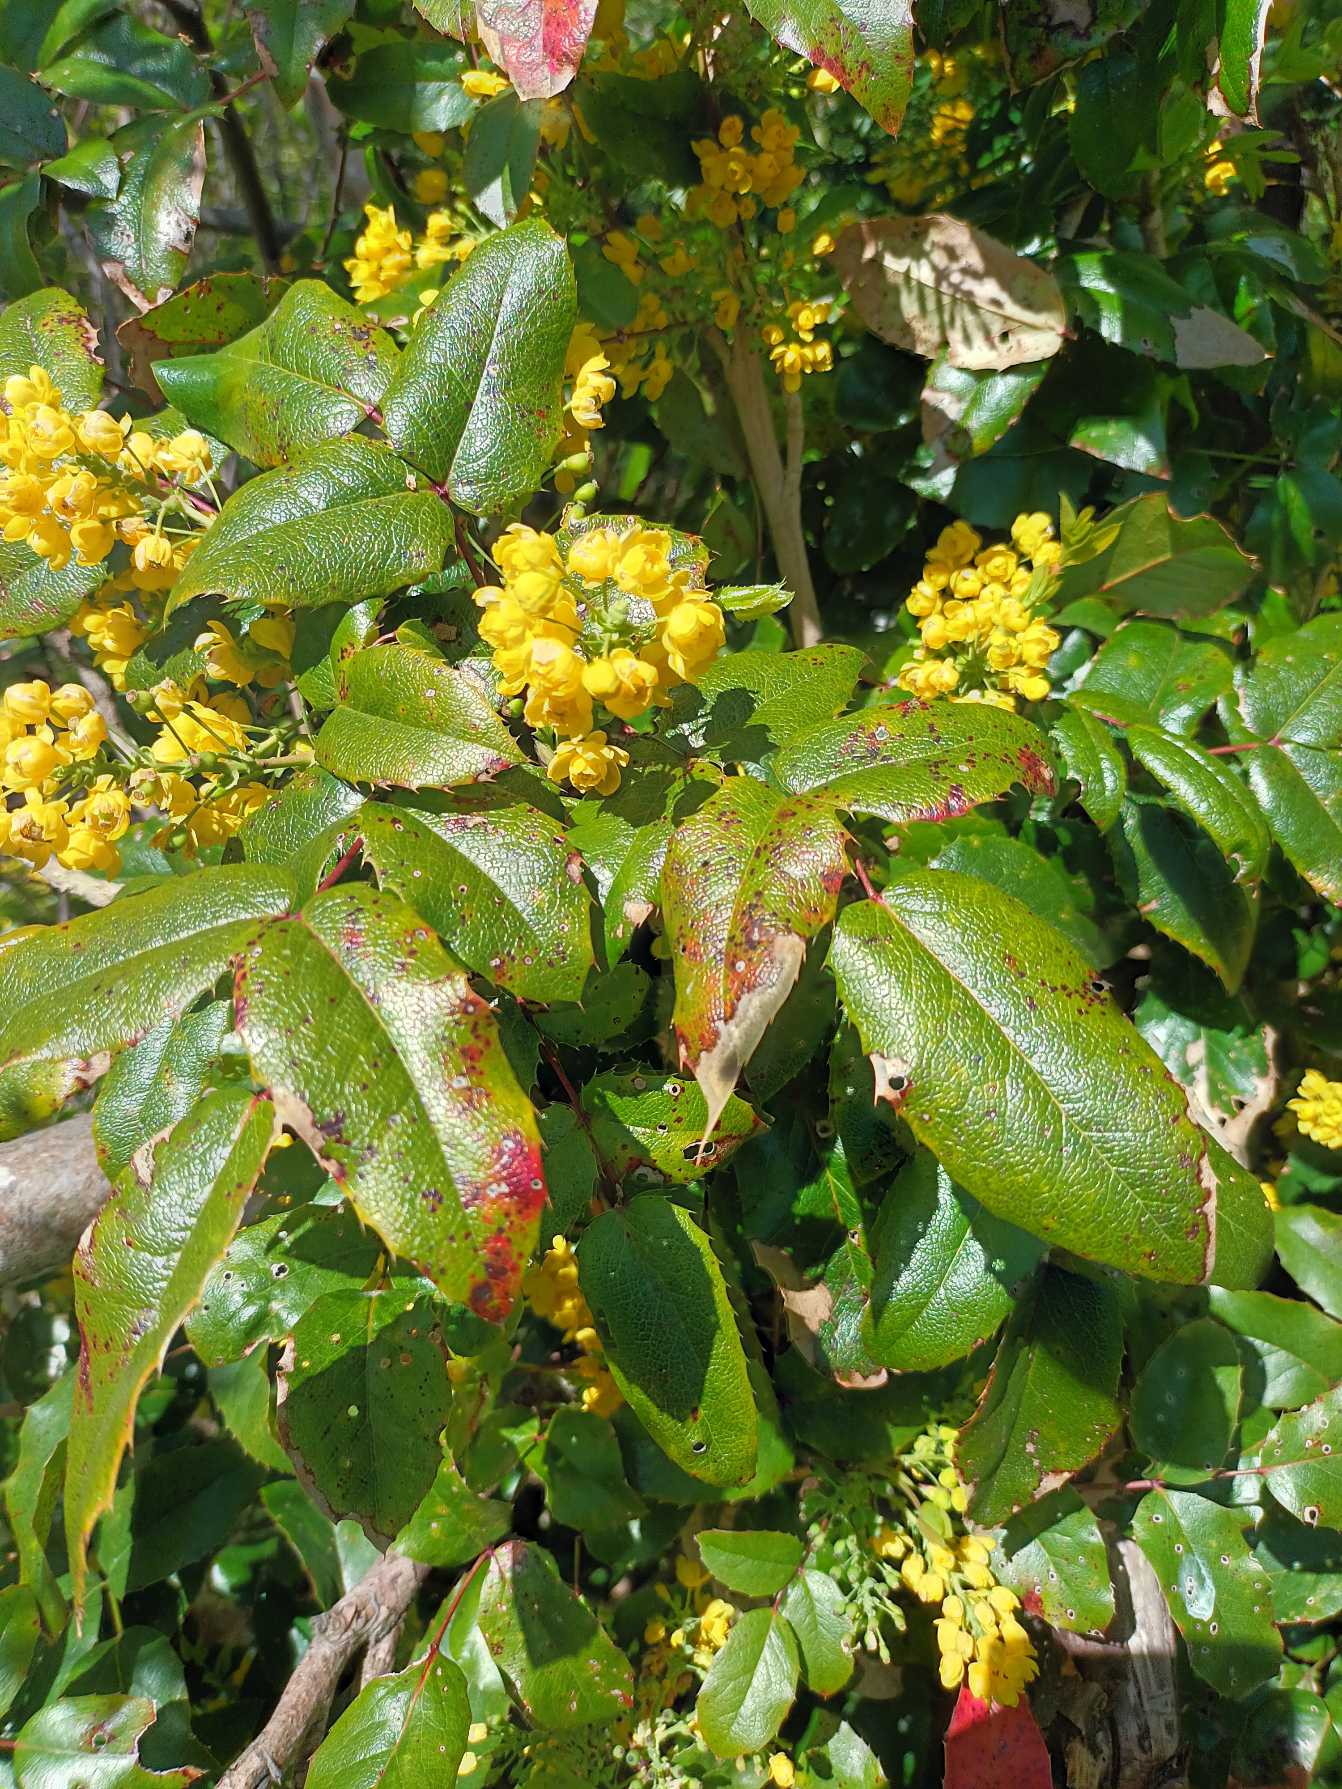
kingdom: Plantae
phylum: Tracheophyta
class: Magnoliopsida
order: Ranunculales
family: Berberidaceae
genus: Mahonia
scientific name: Mahonia aquifolium
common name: Almindelig mahonie
